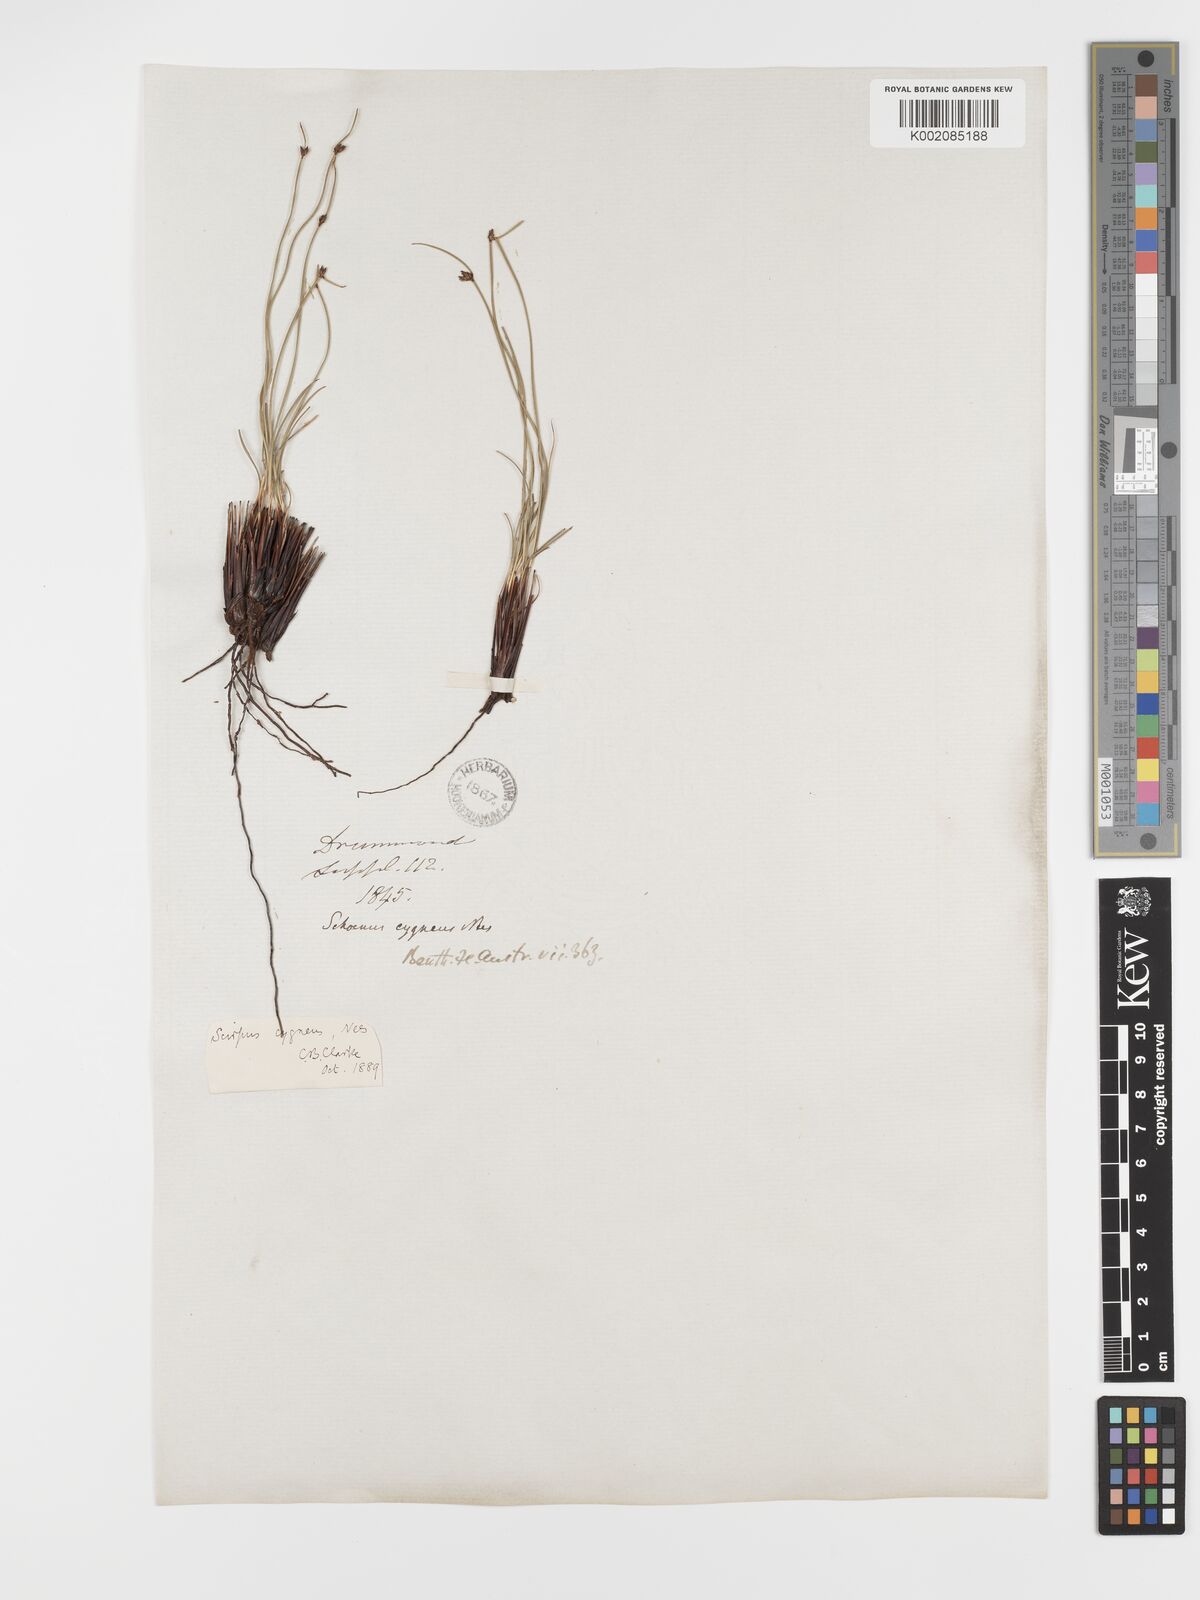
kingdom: Plantae
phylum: Tracheophyta
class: Liliopsida
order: Poales
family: Cyperaceae
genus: Schoenus
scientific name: Schoenus cygneus
